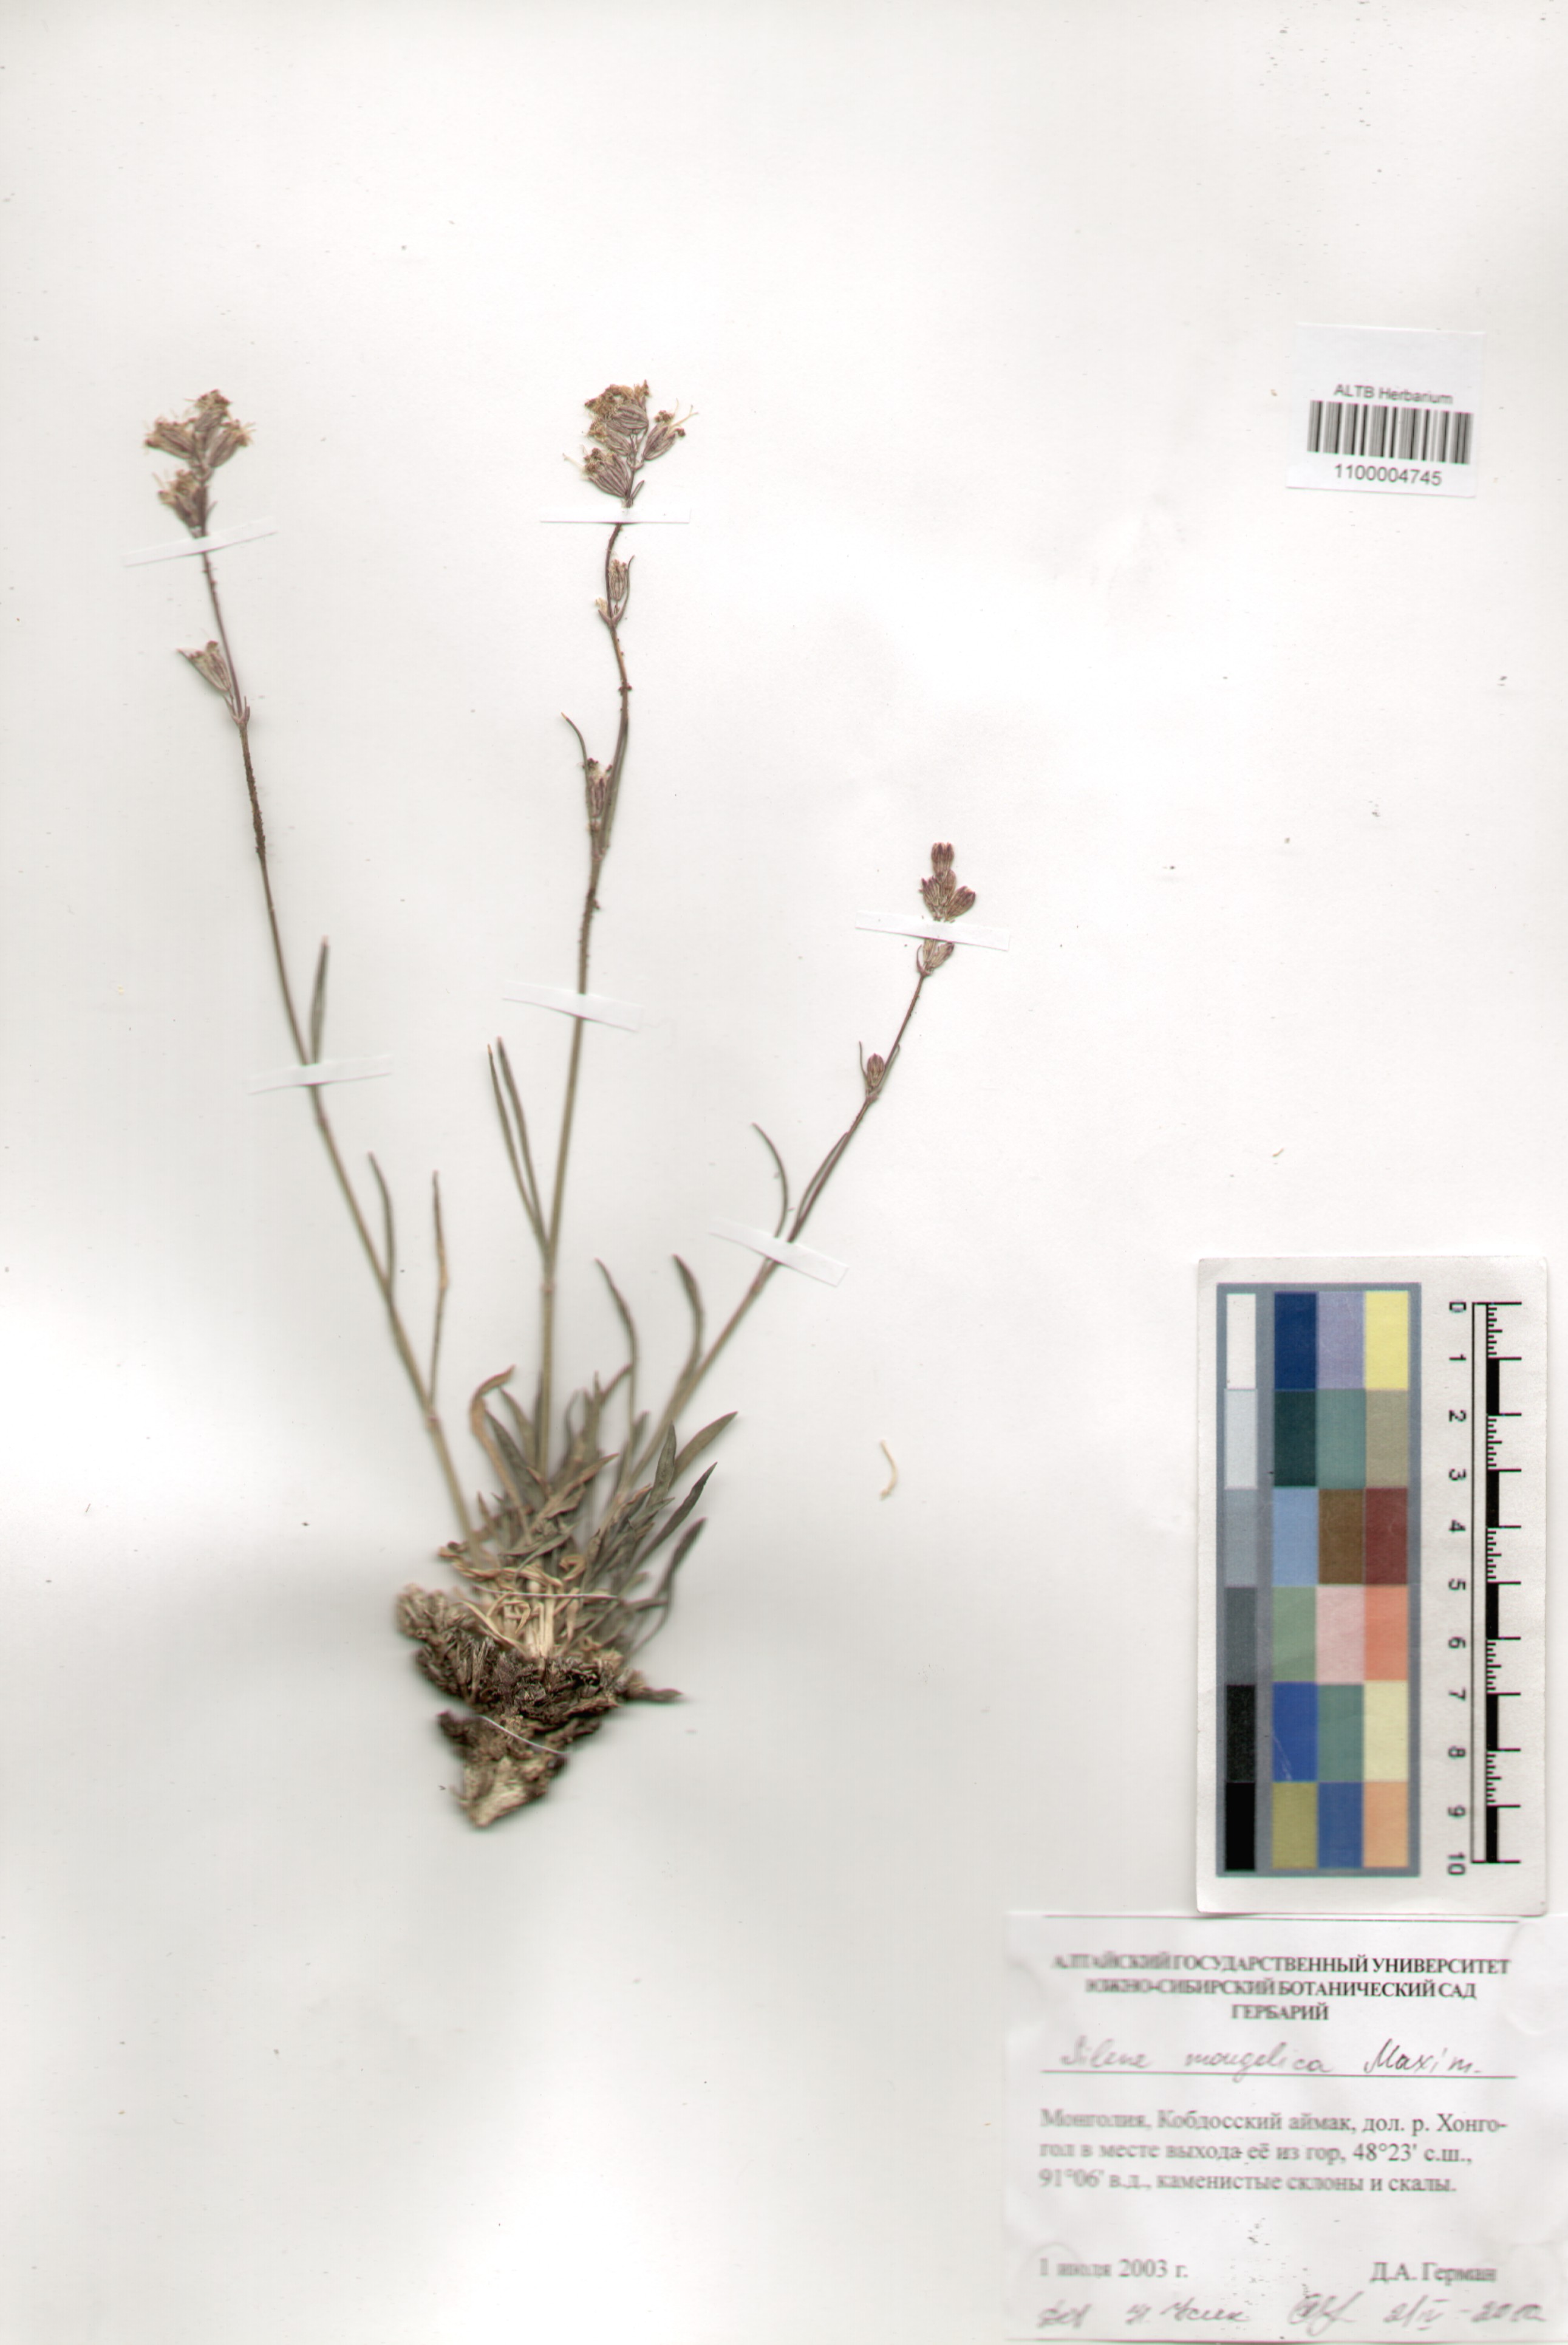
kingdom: Plantae
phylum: Tracheophyta
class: Magnoliopsida
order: Caryophyllales
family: Caryophyllaceae
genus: Silene
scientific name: Silene mongolica
